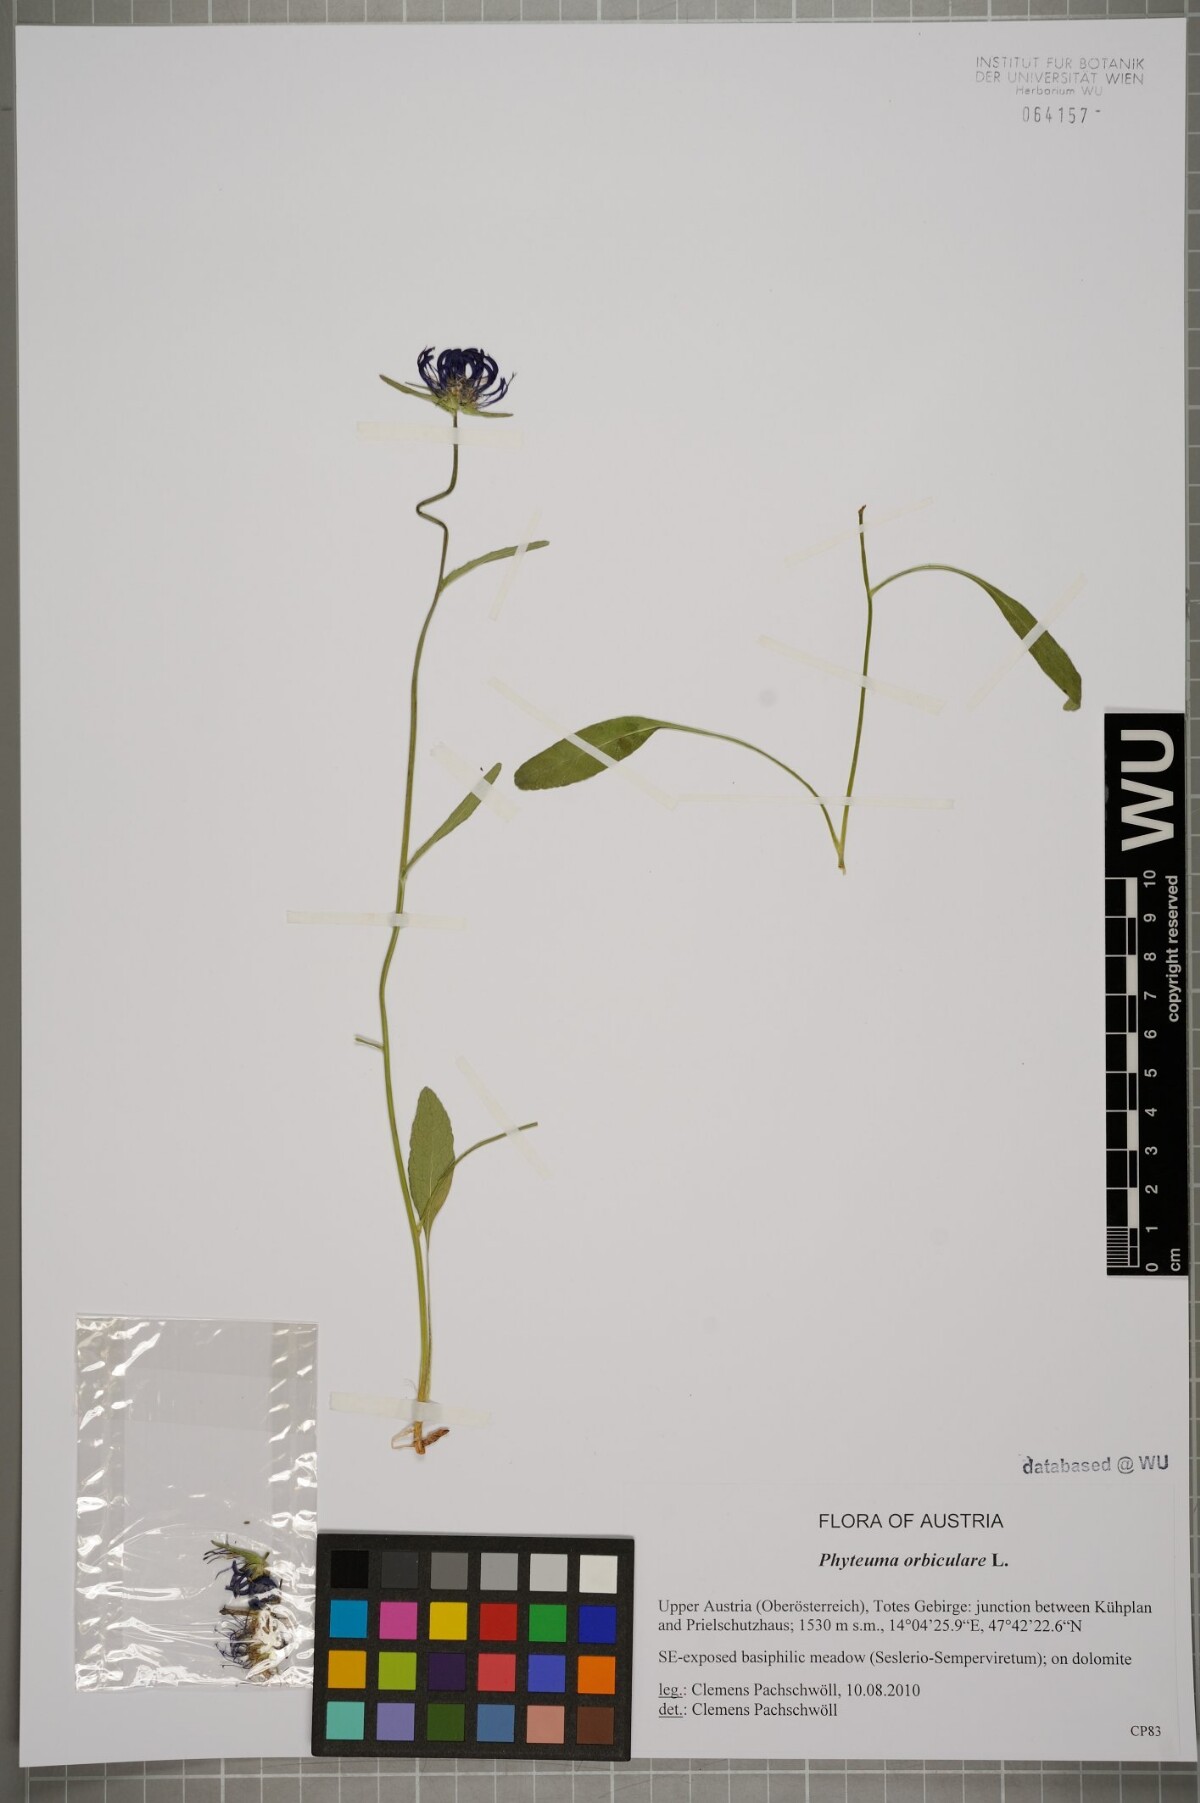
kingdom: Plantae
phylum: Tracheophyta
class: Magnoliopsida
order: Asterales
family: Campanulaceae
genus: Phyteuma
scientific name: Phyteuma orbiculare
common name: Round-headed rampion
